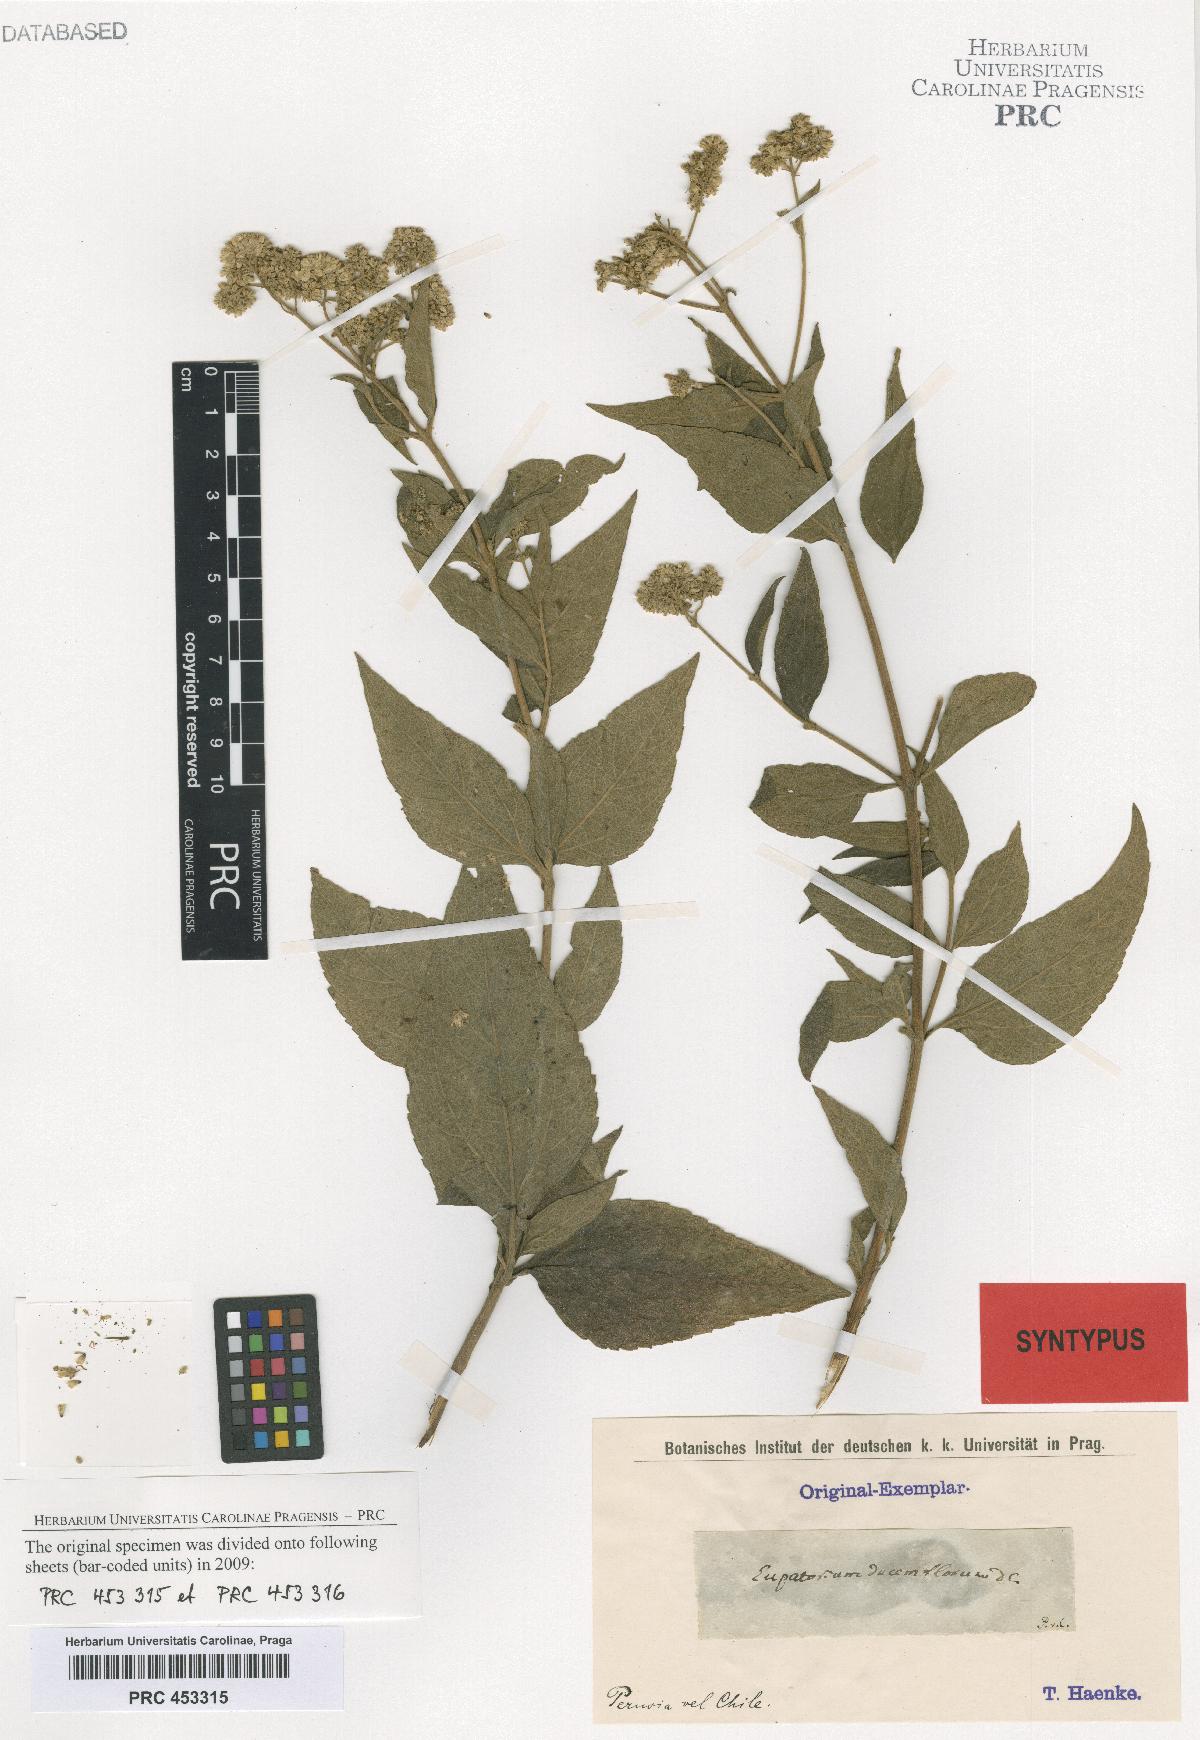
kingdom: Plantae
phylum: Tracheophyta
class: Magnoliopsida
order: Asterales
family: Asteraceae
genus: Austroeupatorium
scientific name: Austroeupatorium decemflorum
